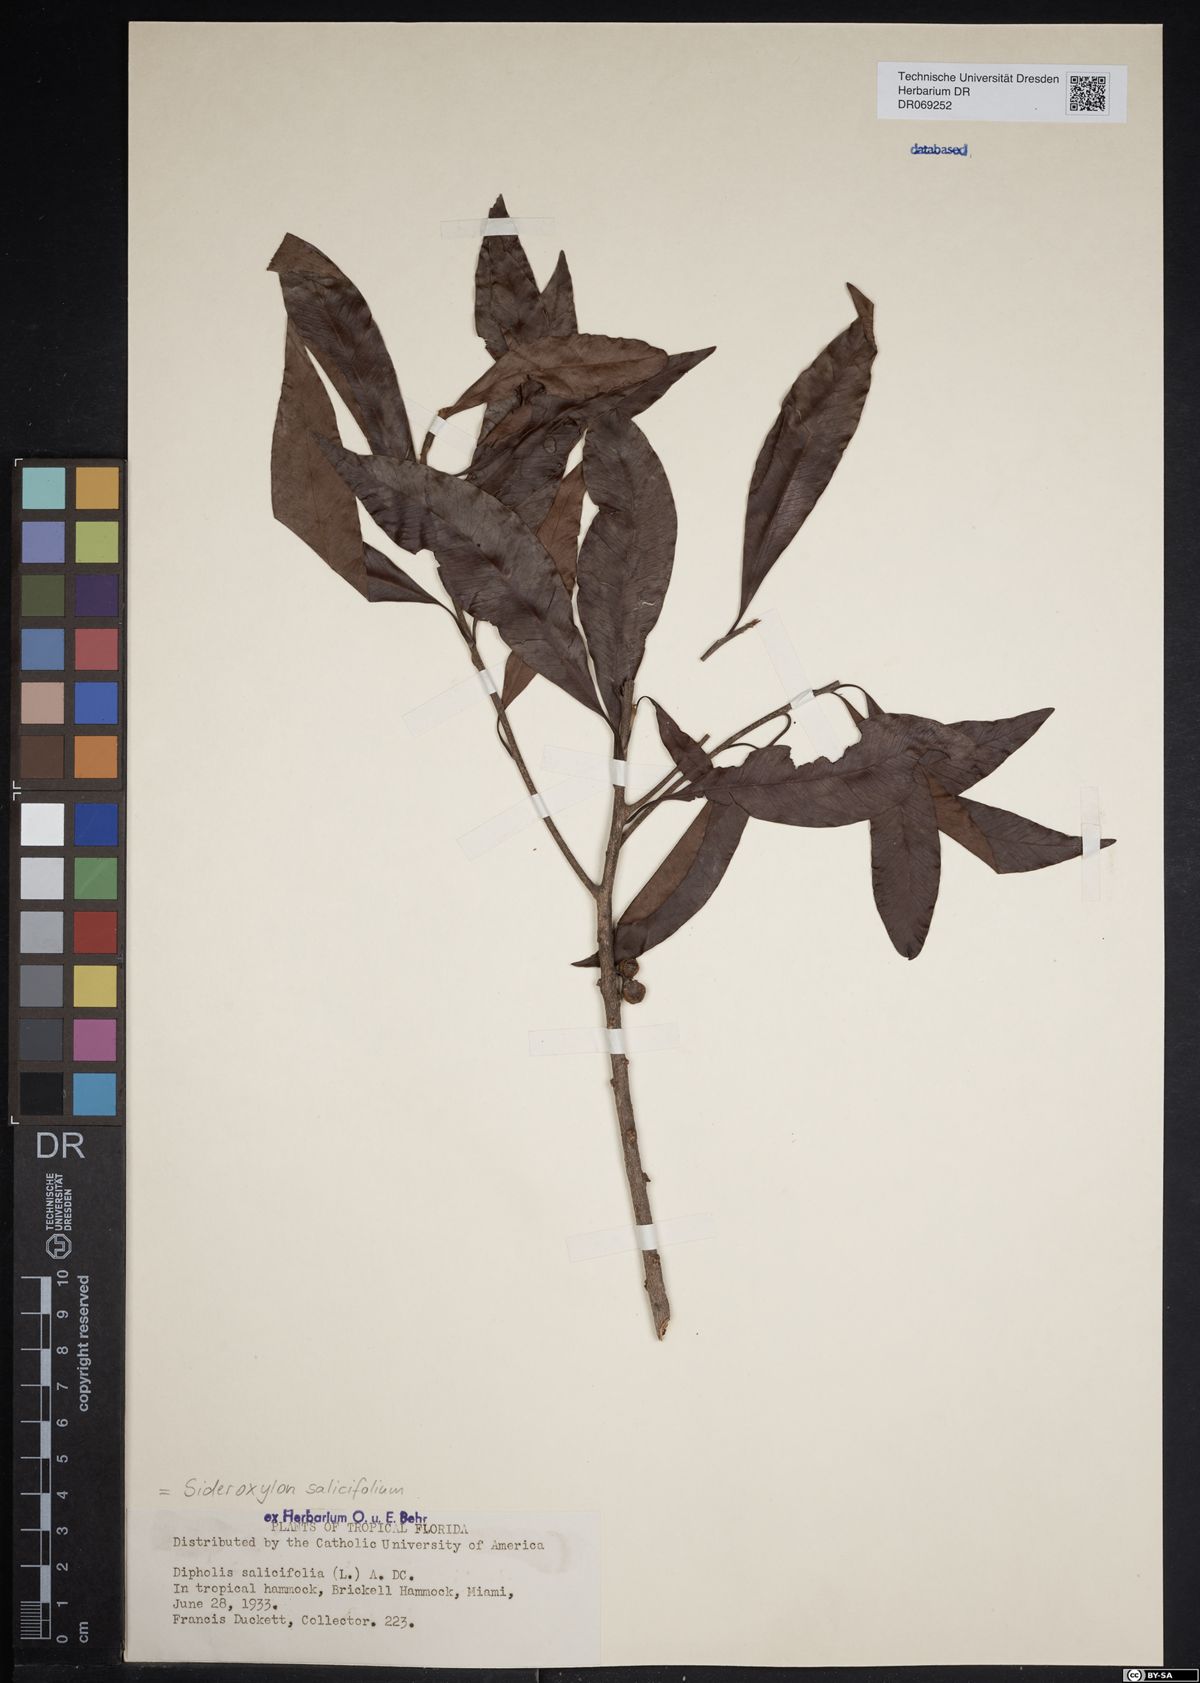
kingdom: Plantae
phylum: Tracheophyta
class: Magnoliopsida
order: Ericales
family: Sapotaceae
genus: Sideroxylon
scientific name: Sideroxylon salicifolium
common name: White bully
